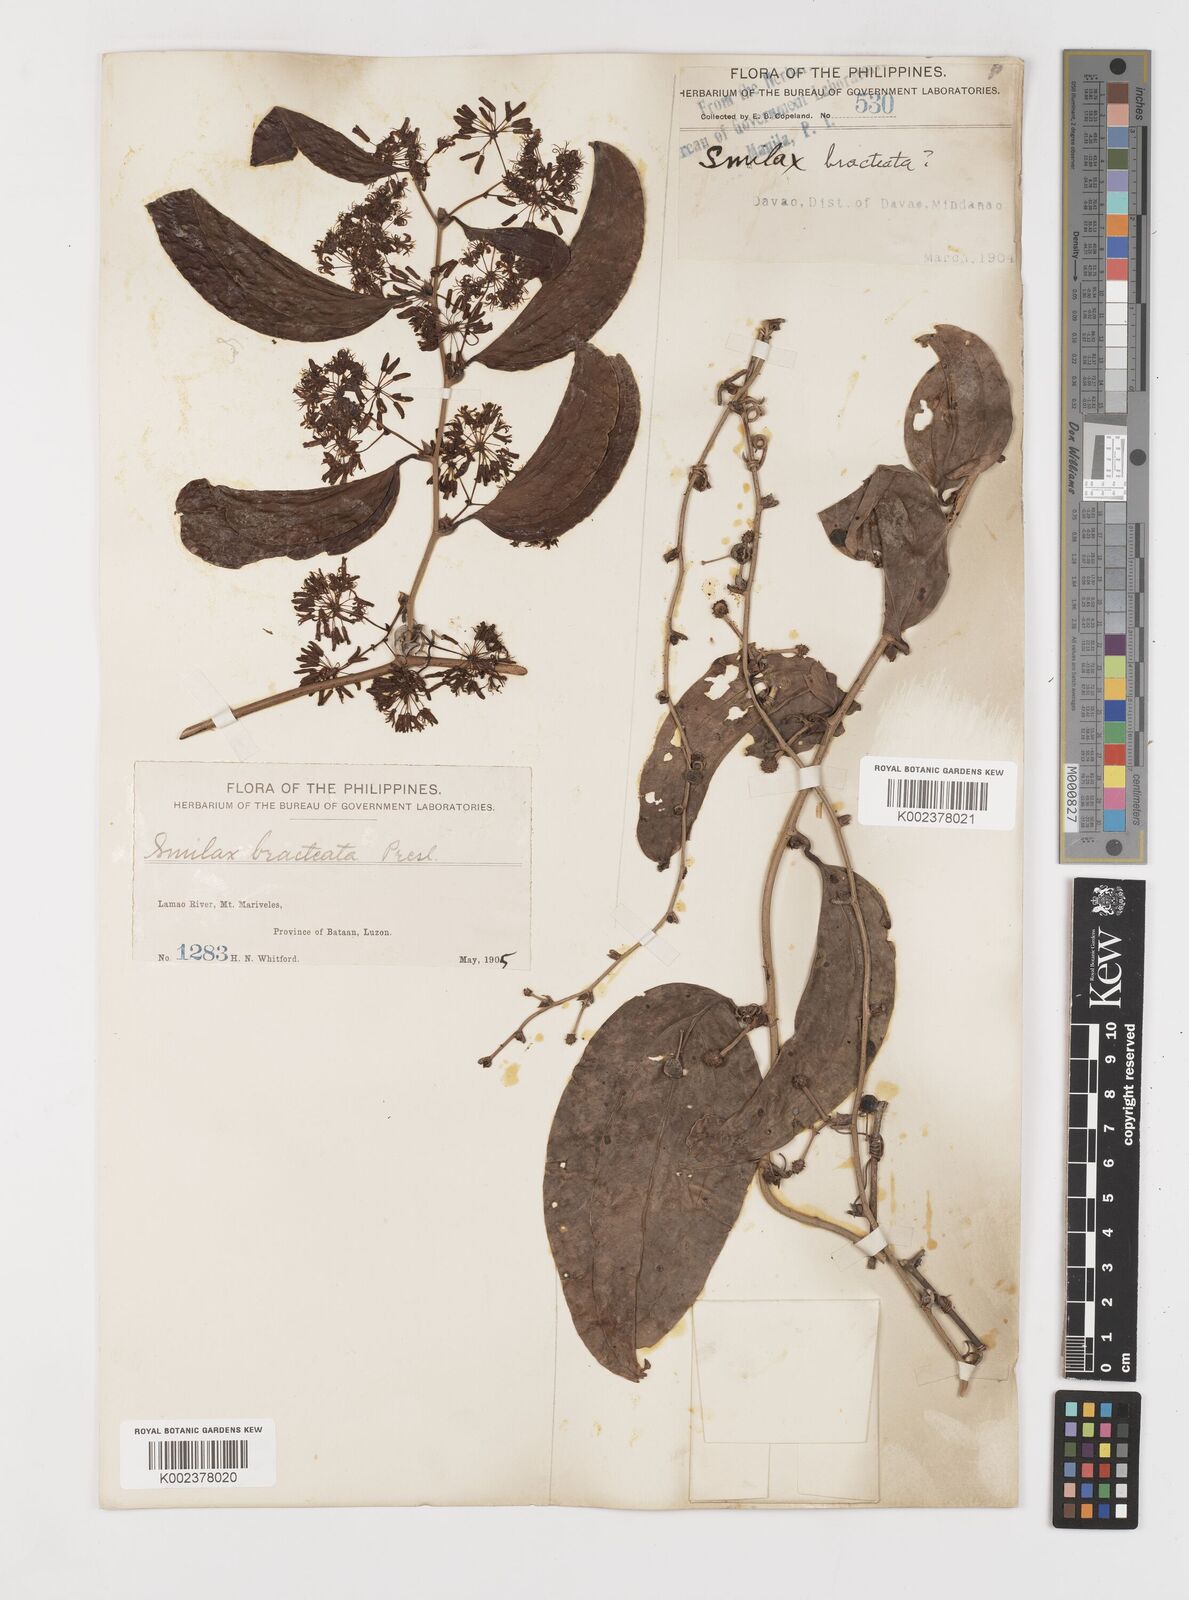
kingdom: Plantae
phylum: Tracheophyta
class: Liliopsida
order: Liliales
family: Smilacaceae
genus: Smilax
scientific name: Smilax bracteata
